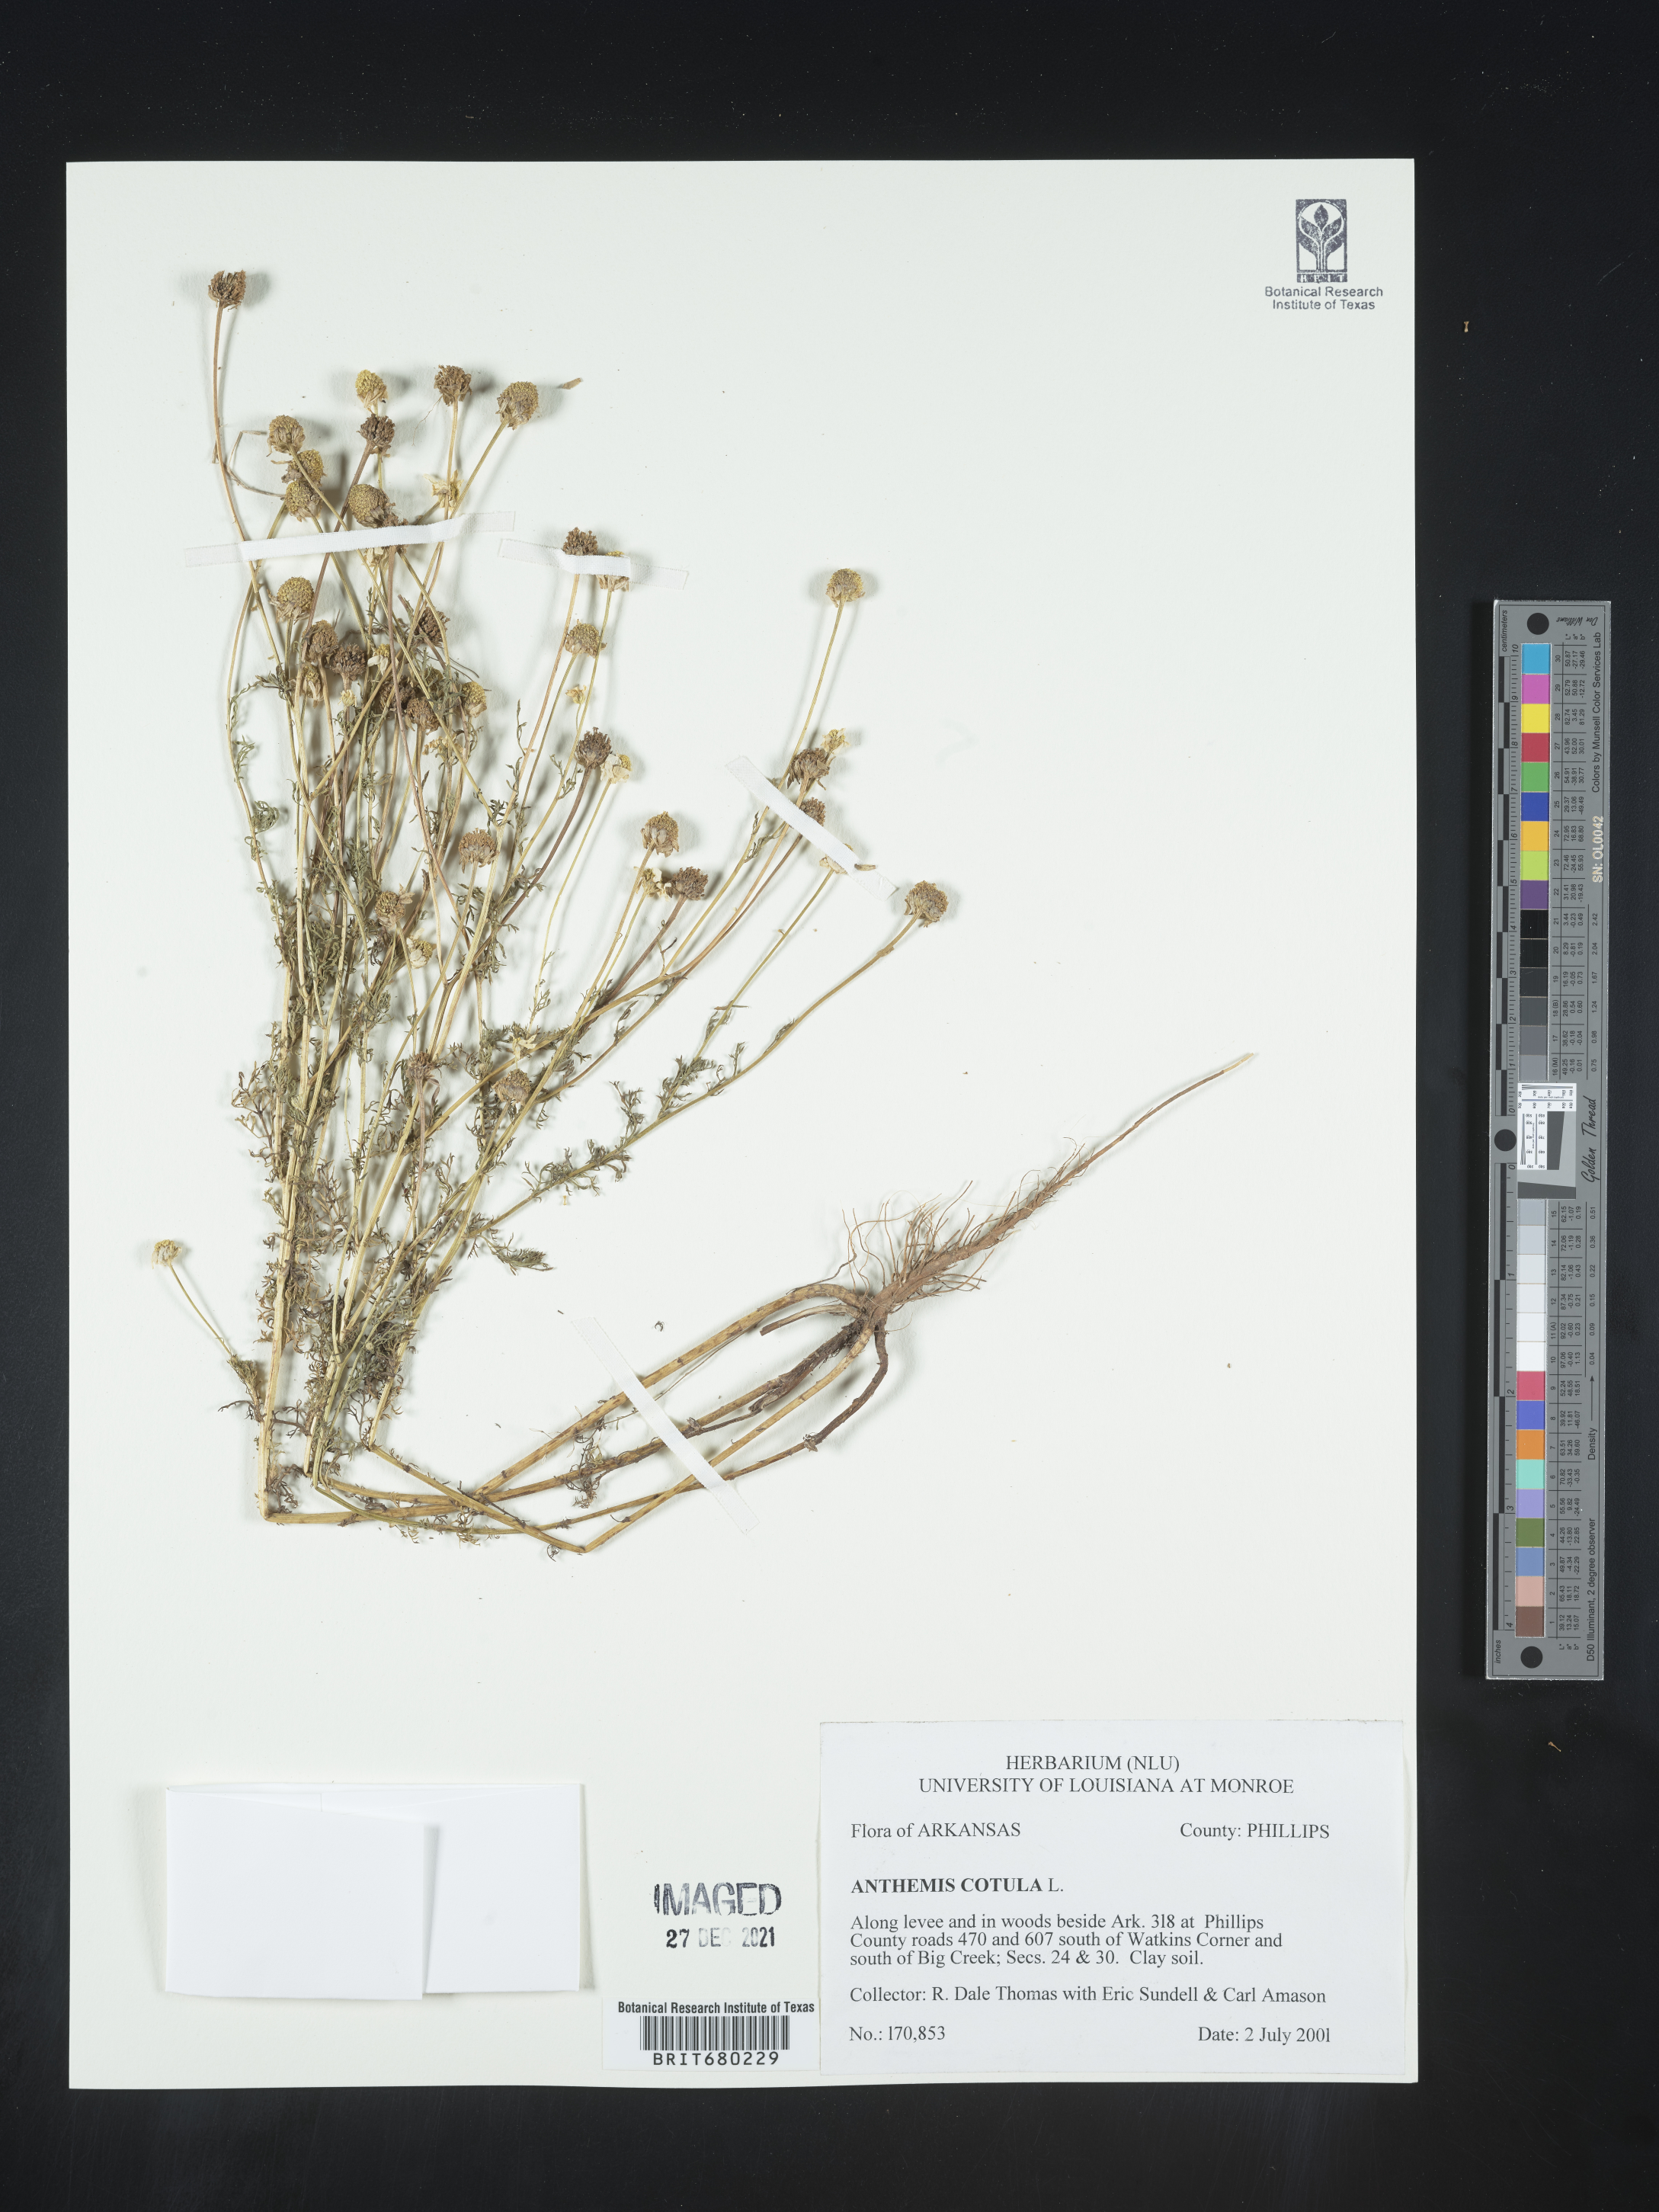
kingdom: Plantae
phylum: Tracheophyta
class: Magnoliopsida
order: Asterales
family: Asteraceae
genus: Anthemis
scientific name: Anthemis cotula
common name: Stinking chamomile
